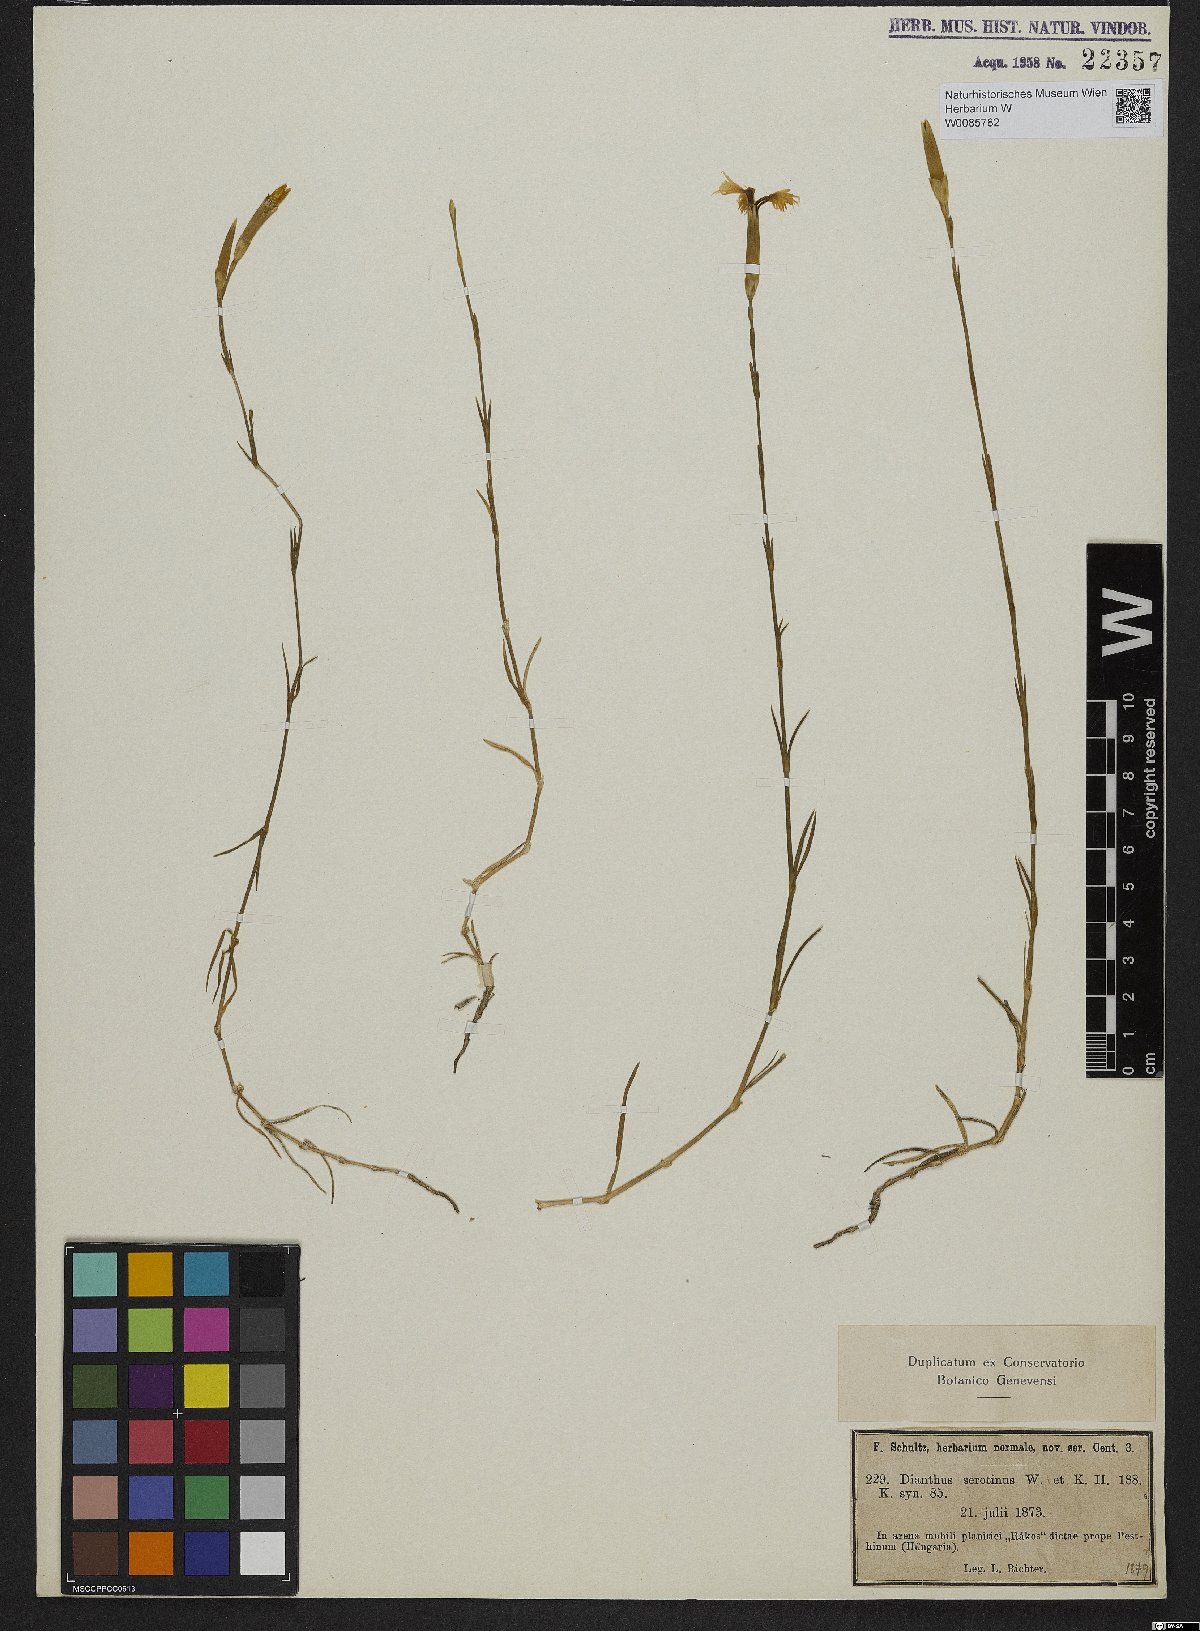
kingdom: Plantae
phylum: Tracheophyta
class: Magnoliopsida
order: Caryophyllales
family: Caryophyllaceae
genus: Dianthus
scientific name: Dianthus serotinus
